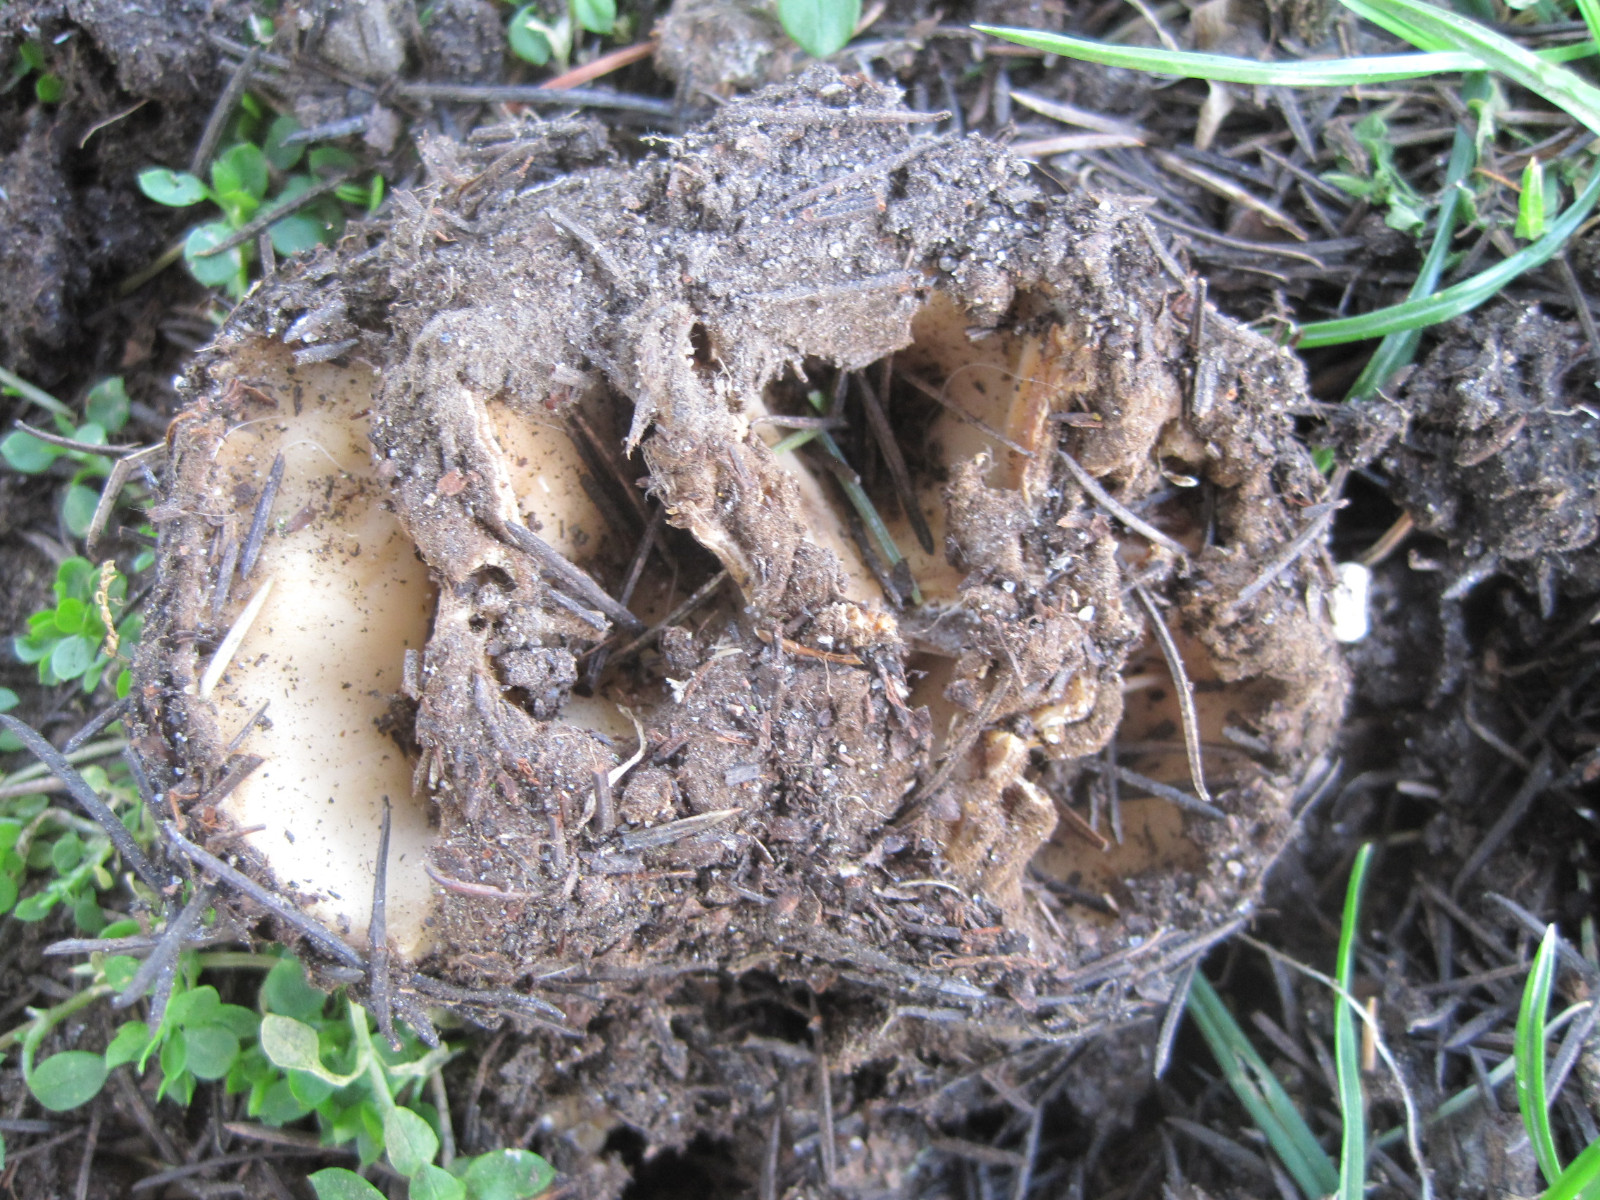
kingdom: Fungi
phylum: Ascomycota
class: Pezizomycetes
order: Pezizales
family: Pyronemataceae
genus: Geopora
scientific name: Geopora sumneriana
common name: vår-jordbæger
